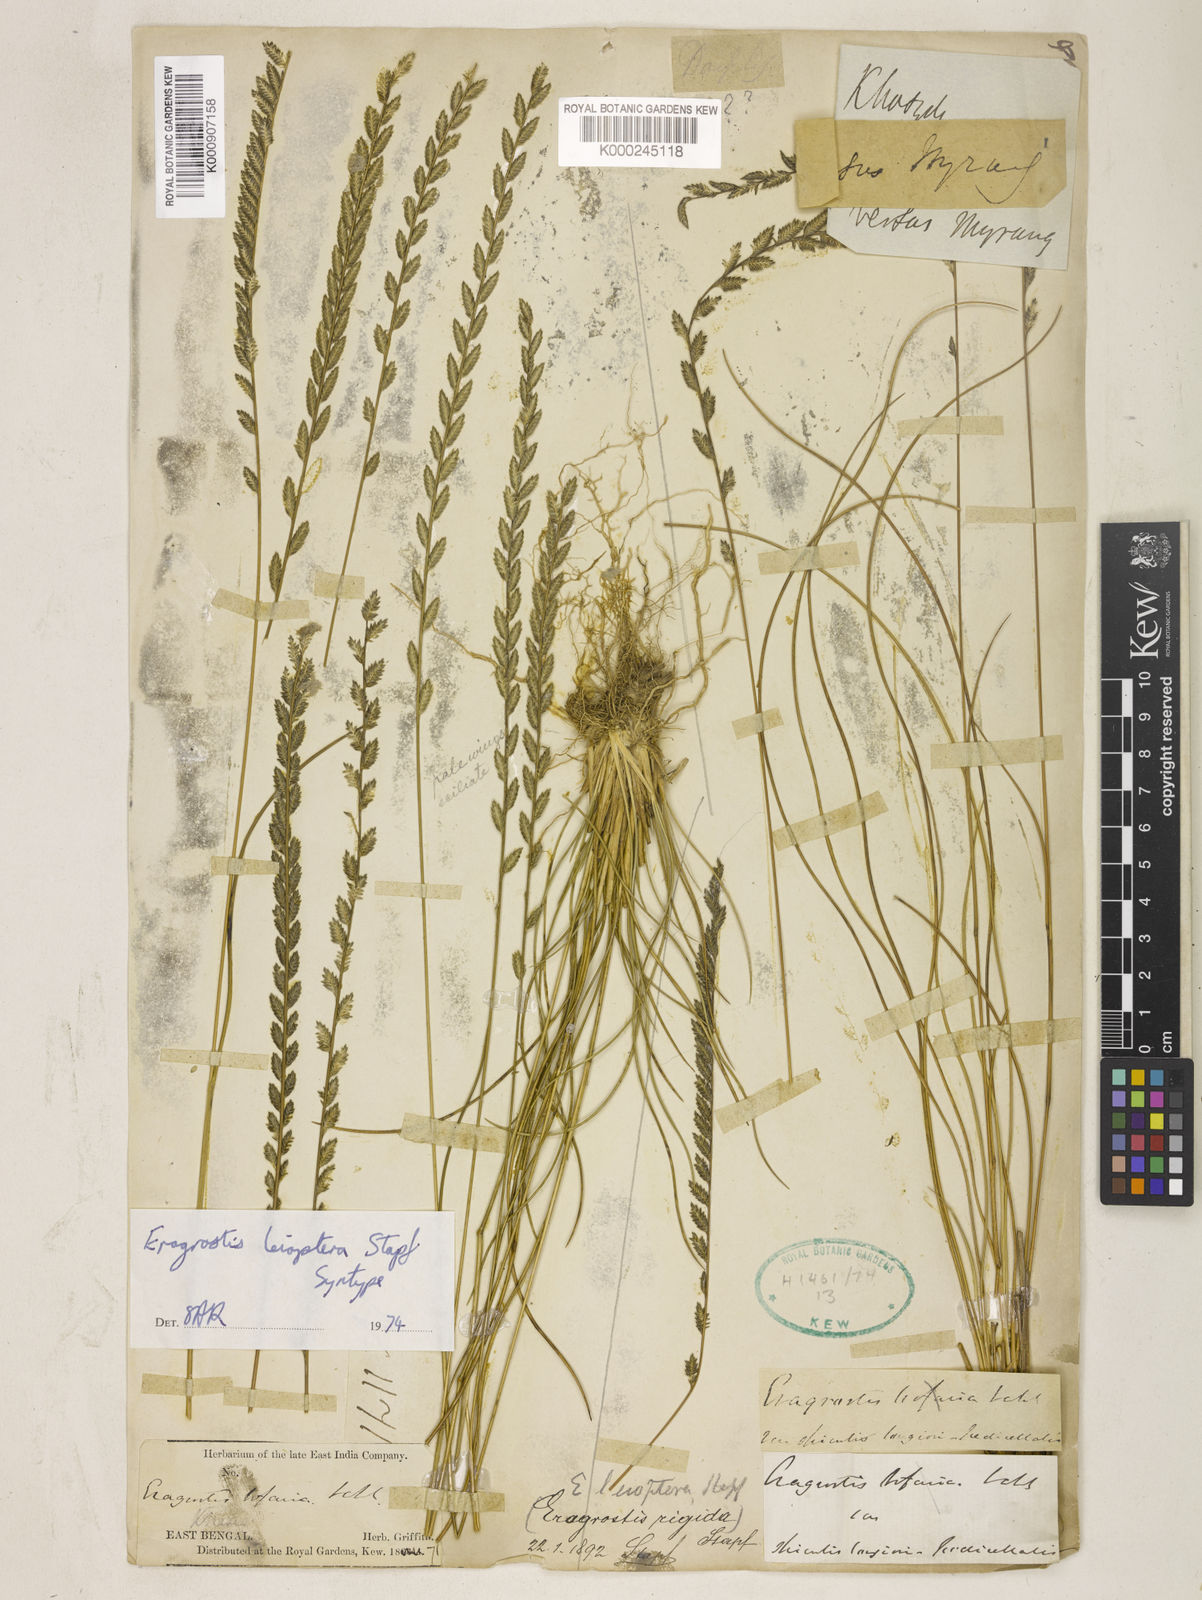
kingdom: Plantae
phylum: Tracheophyta
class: Liliopsida
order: Poales
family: Poaceae
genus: Eragrostiella
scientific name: Eragrostiella leioptera
